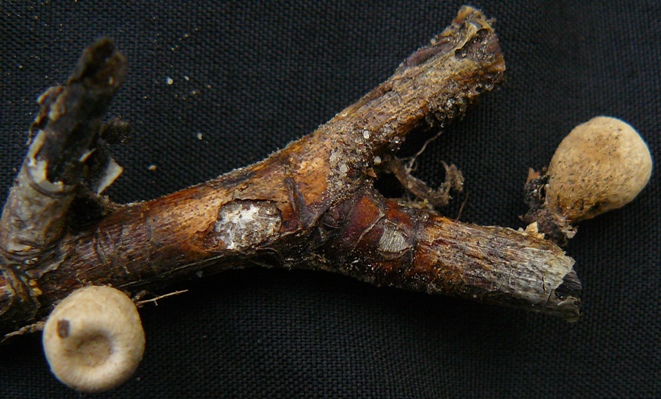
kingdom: Fungi
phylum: Basidiomycota
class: Agaricomycetes
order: Agaricales
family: Agaricaceae
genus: Cyathus
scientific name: Cyathus olla
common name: klokke-redesvamp
